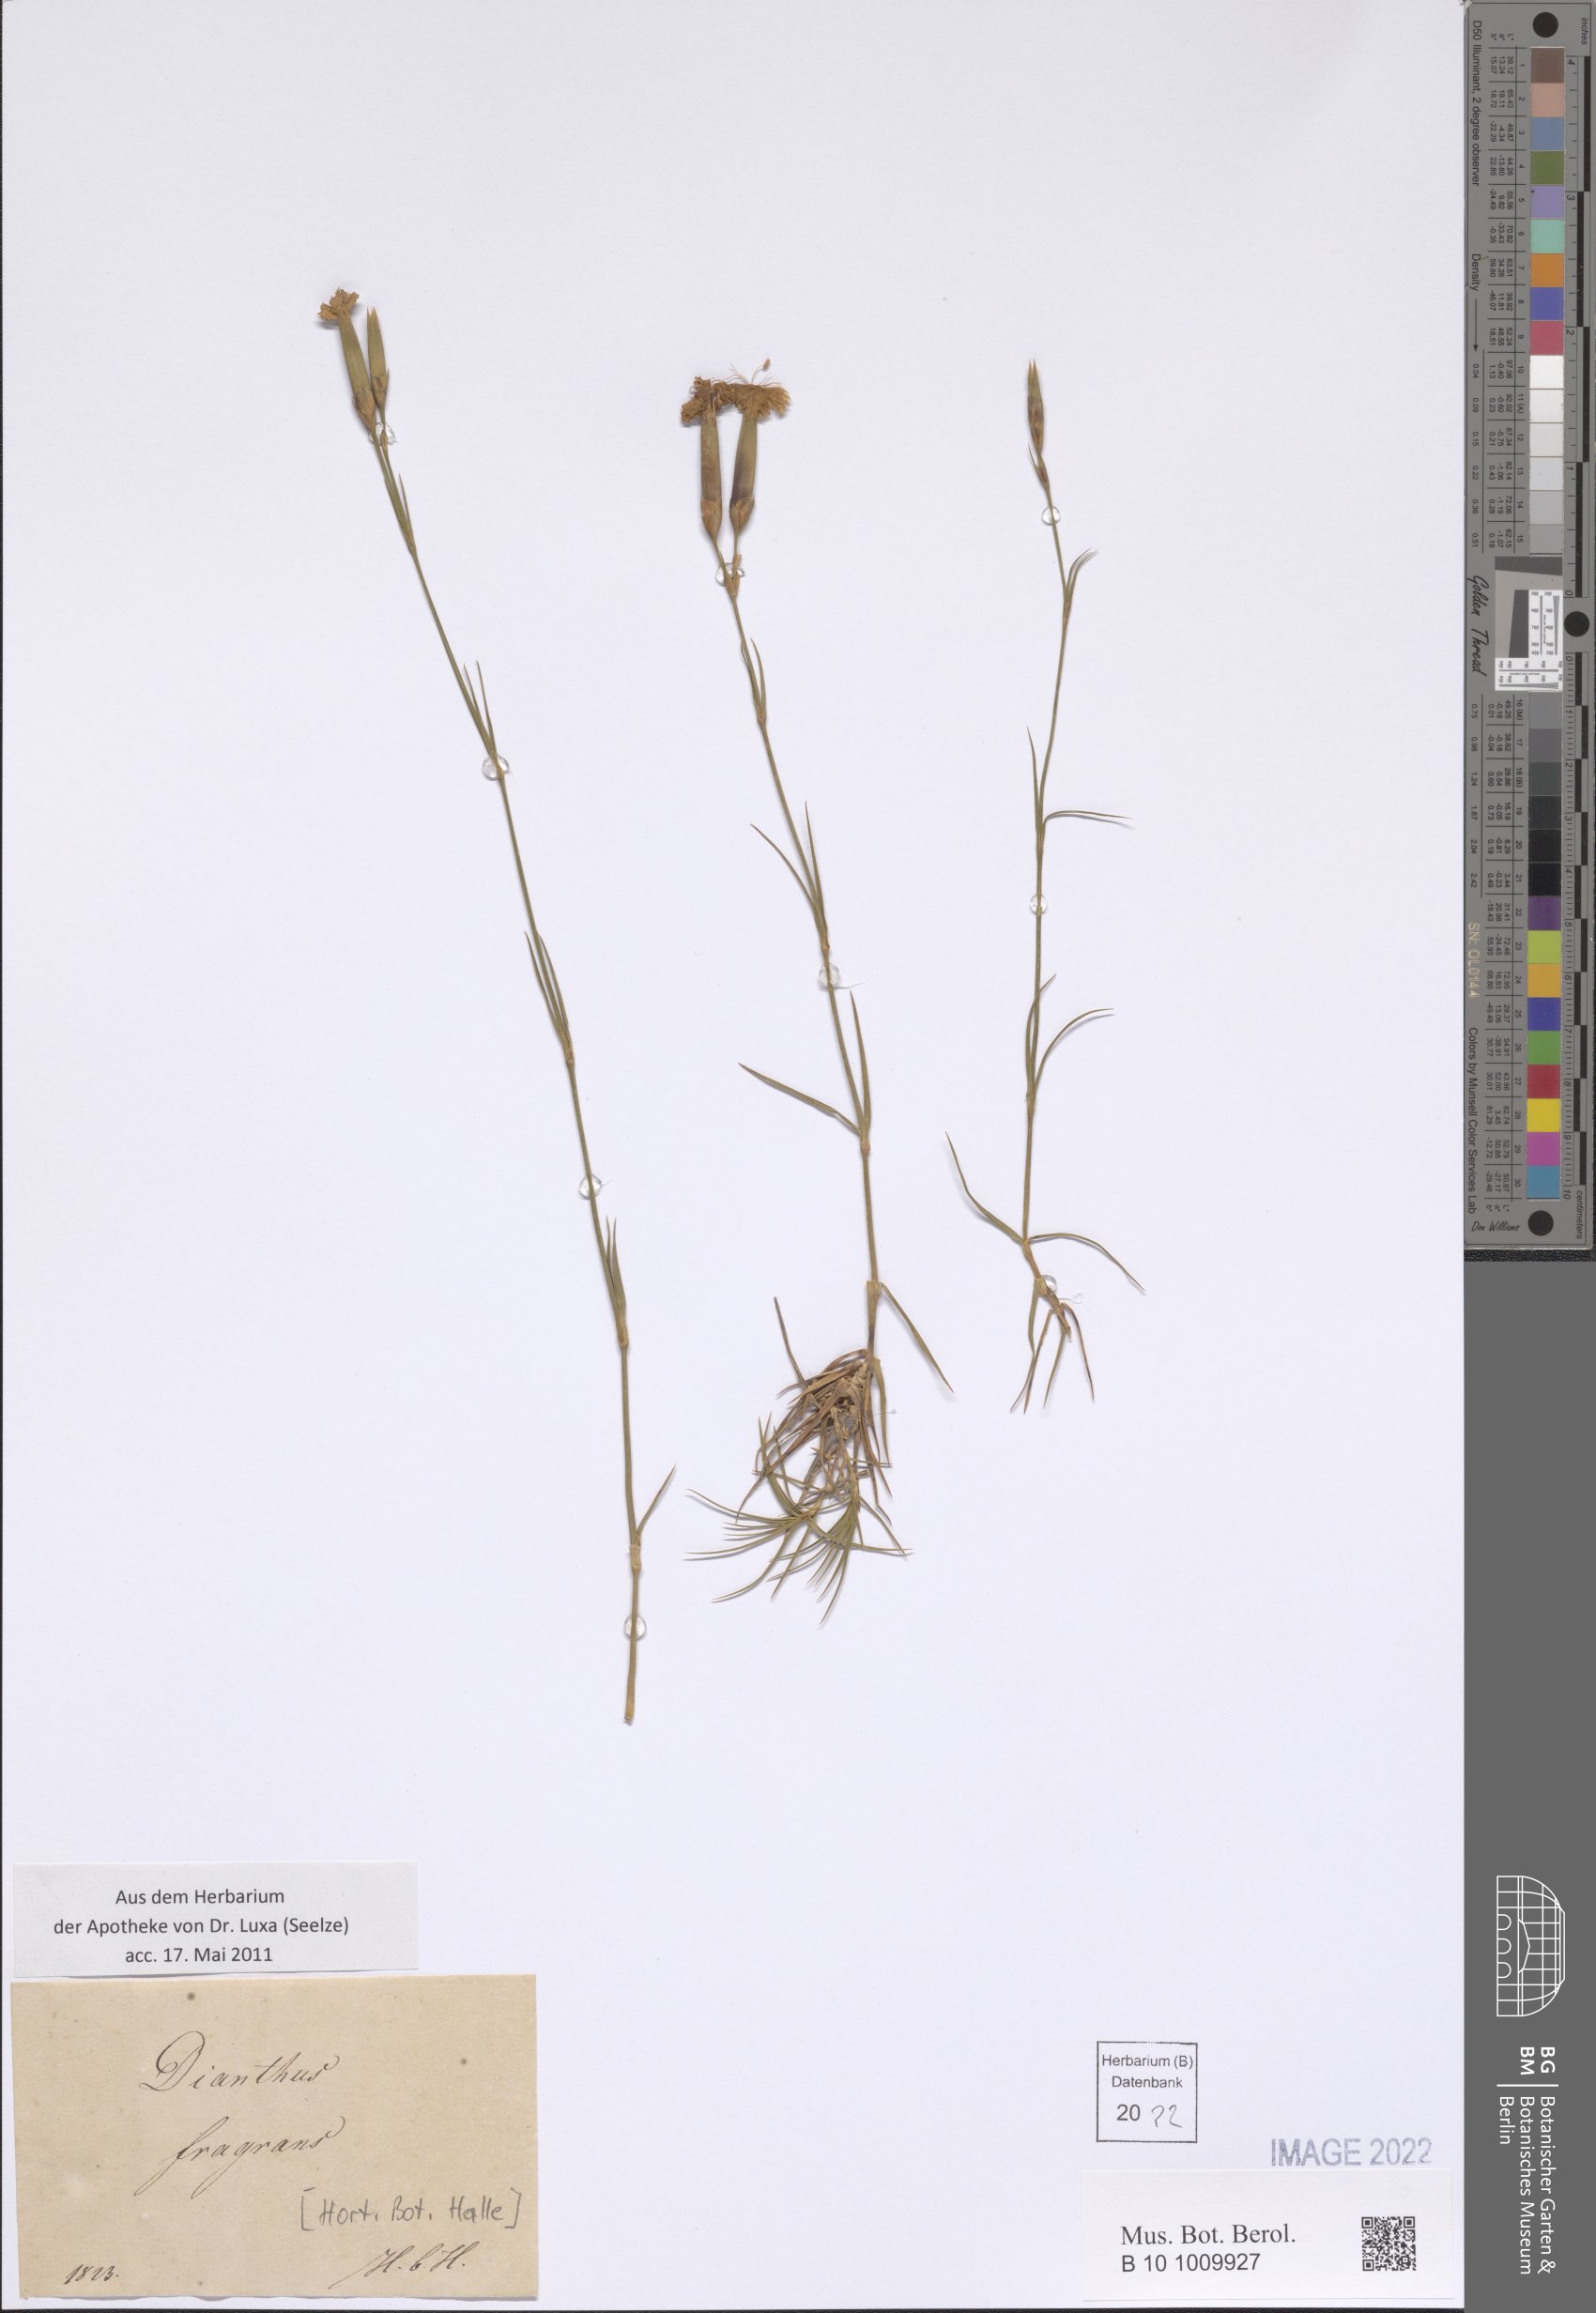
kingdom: Plantae
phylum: Tracheophyta
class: Magnoliopsida
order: Caryophyllales
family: Caryophyllaceae
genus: Dianthus
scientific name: Dianthus fragrans
